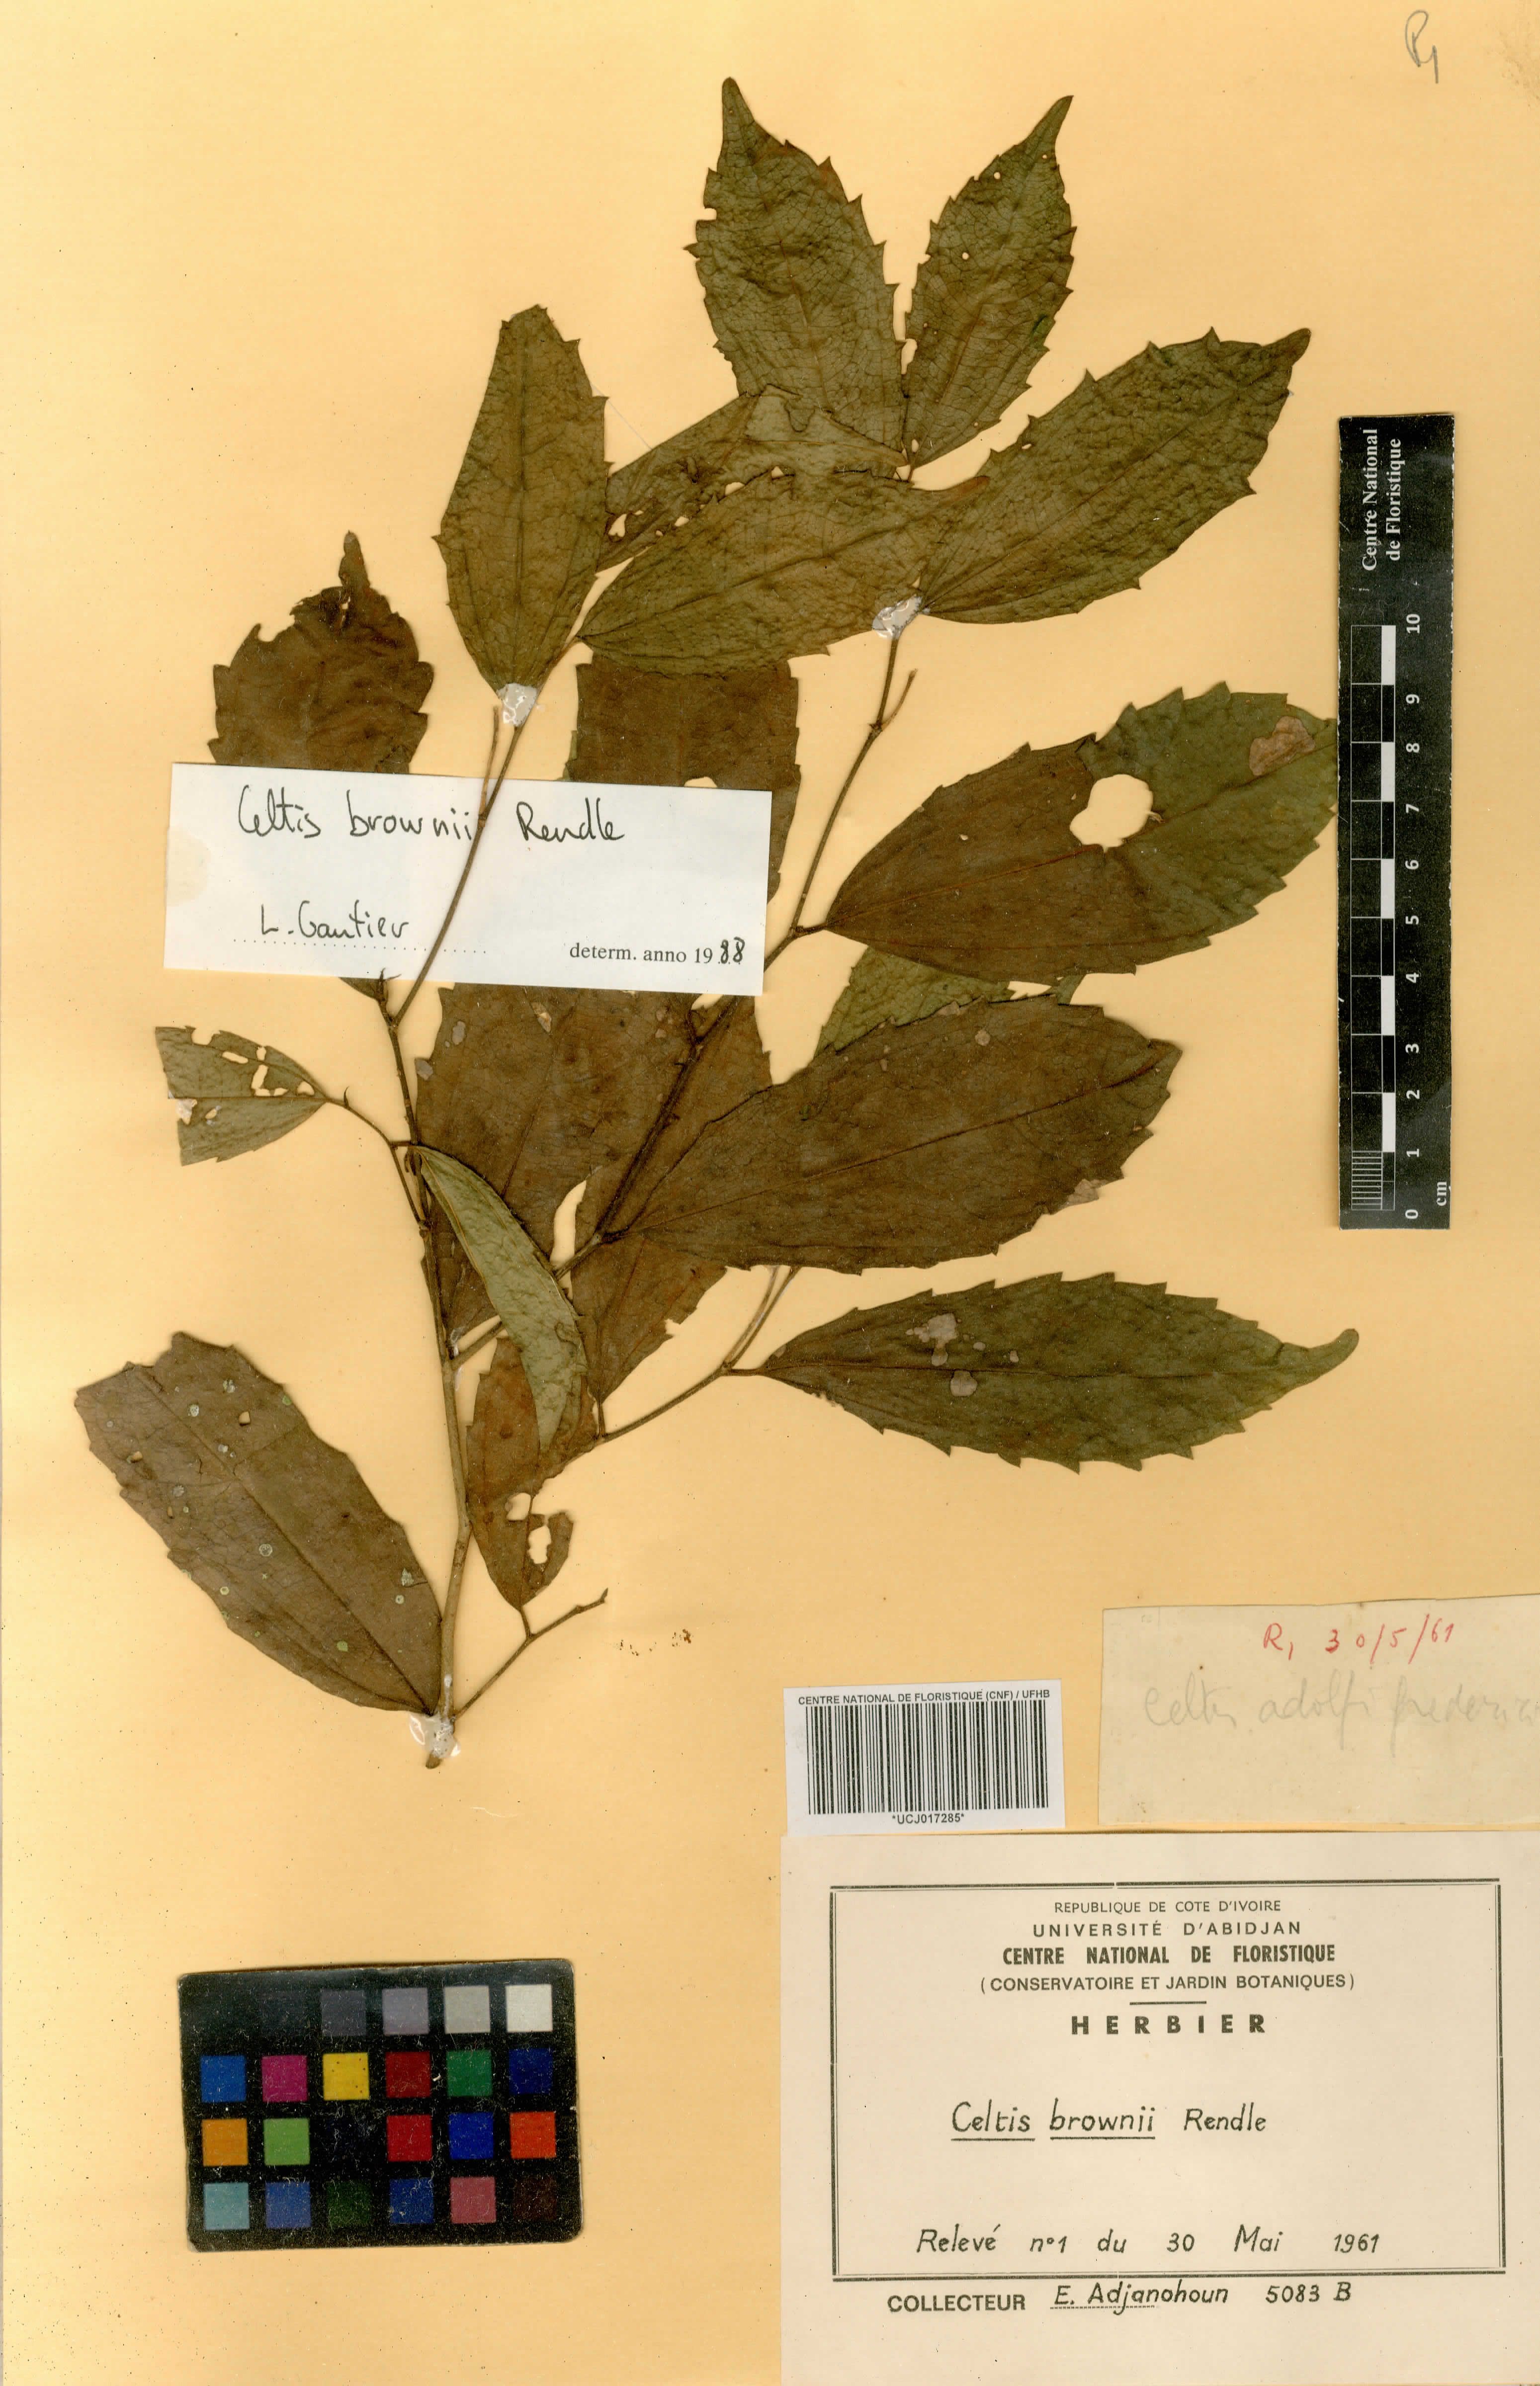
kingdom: Plantae
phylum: Tracheophyta
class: Magnoliopsida
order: Rosales
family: Cannabaceae
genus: Celtis
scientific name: Celtis philippensis
